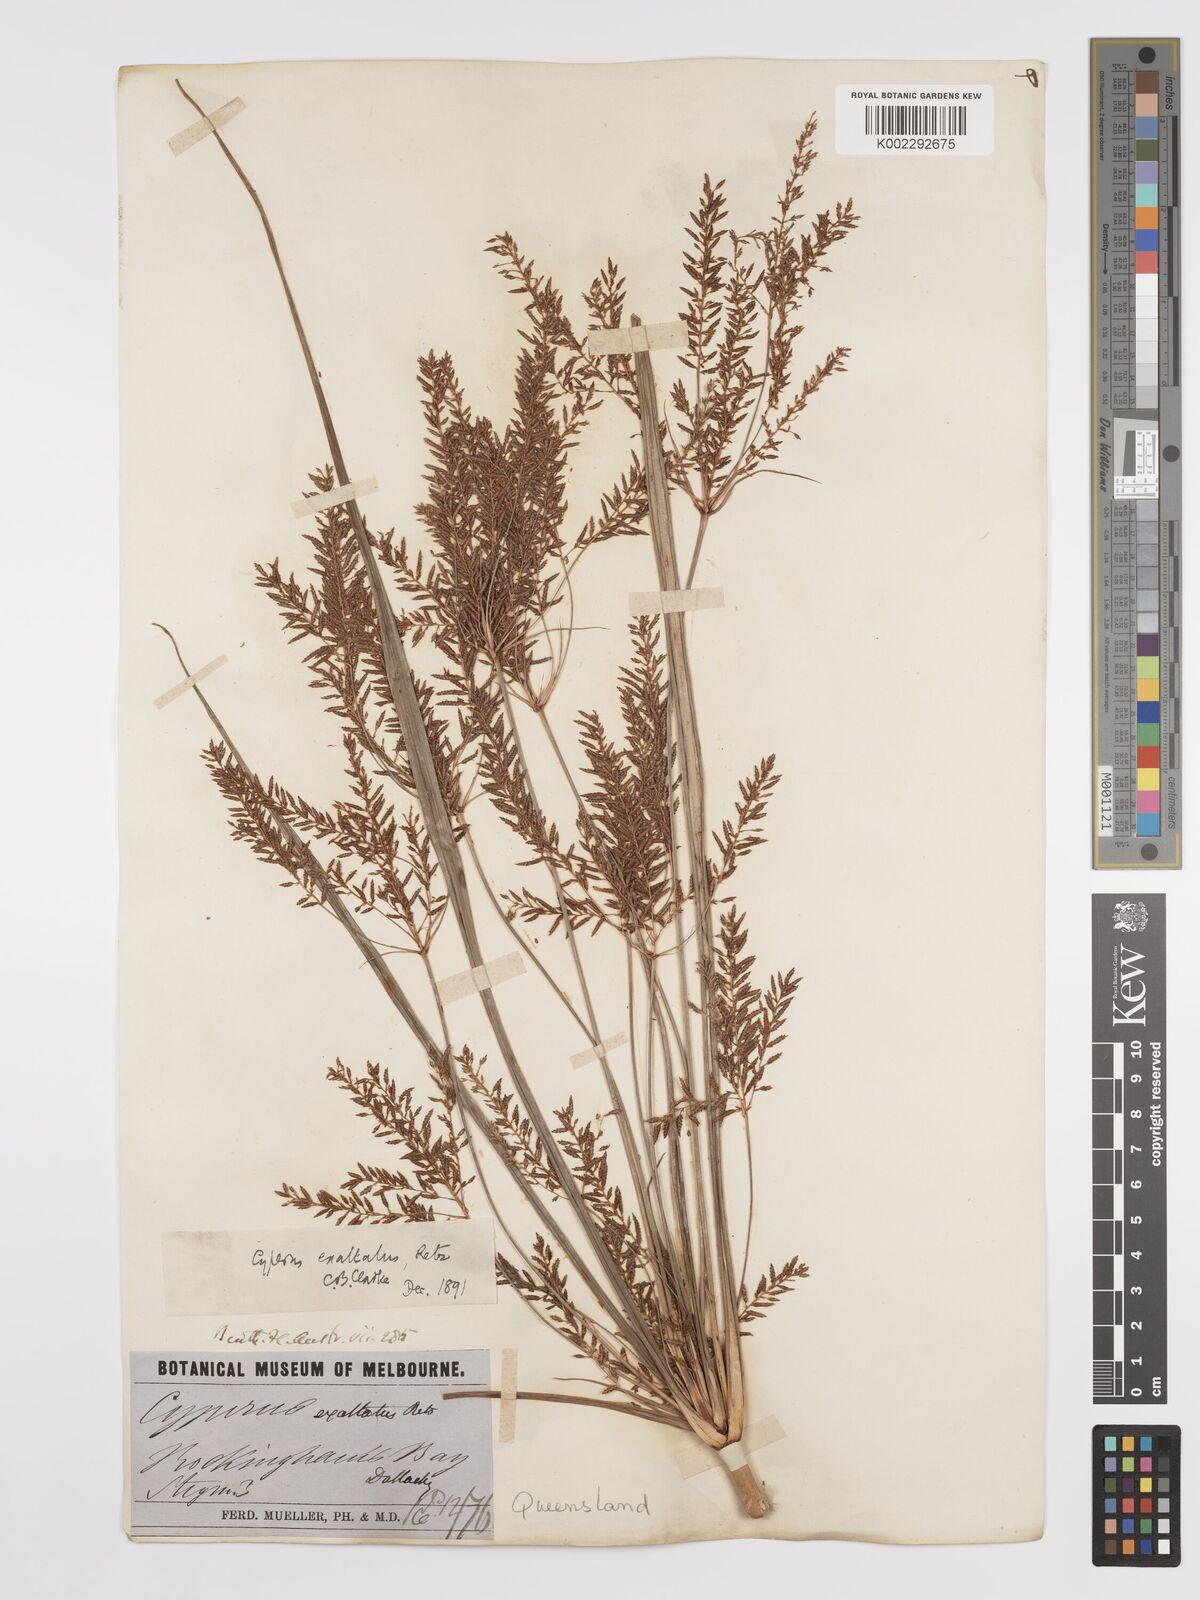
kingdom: Plantae
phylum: Tracheophyta
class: Liliopsida
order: Poales
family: Cyperaceae
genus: Cyperus
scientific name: Cyperus exaltatus
